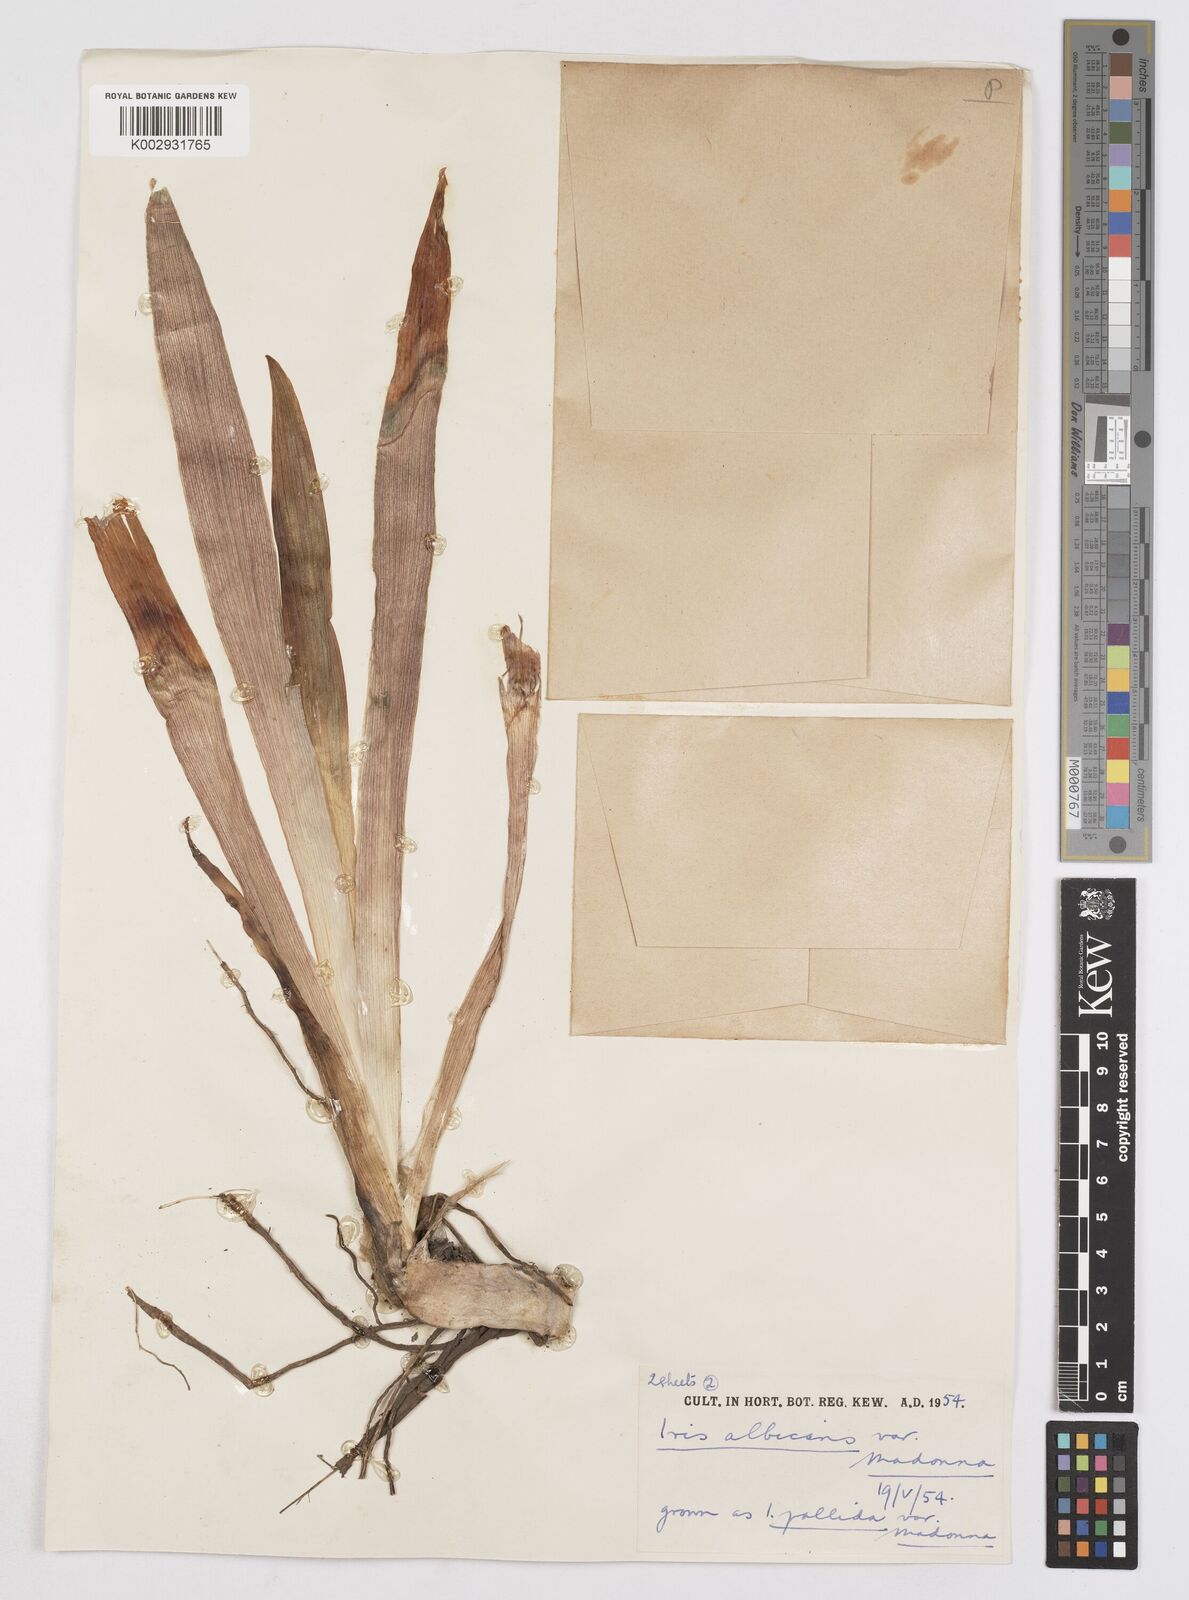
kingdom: Plantae
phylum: Tracheophyta
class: Liliopsida
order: Asparagales
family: Iridaceae
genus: Iris
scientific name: Iris florentina
